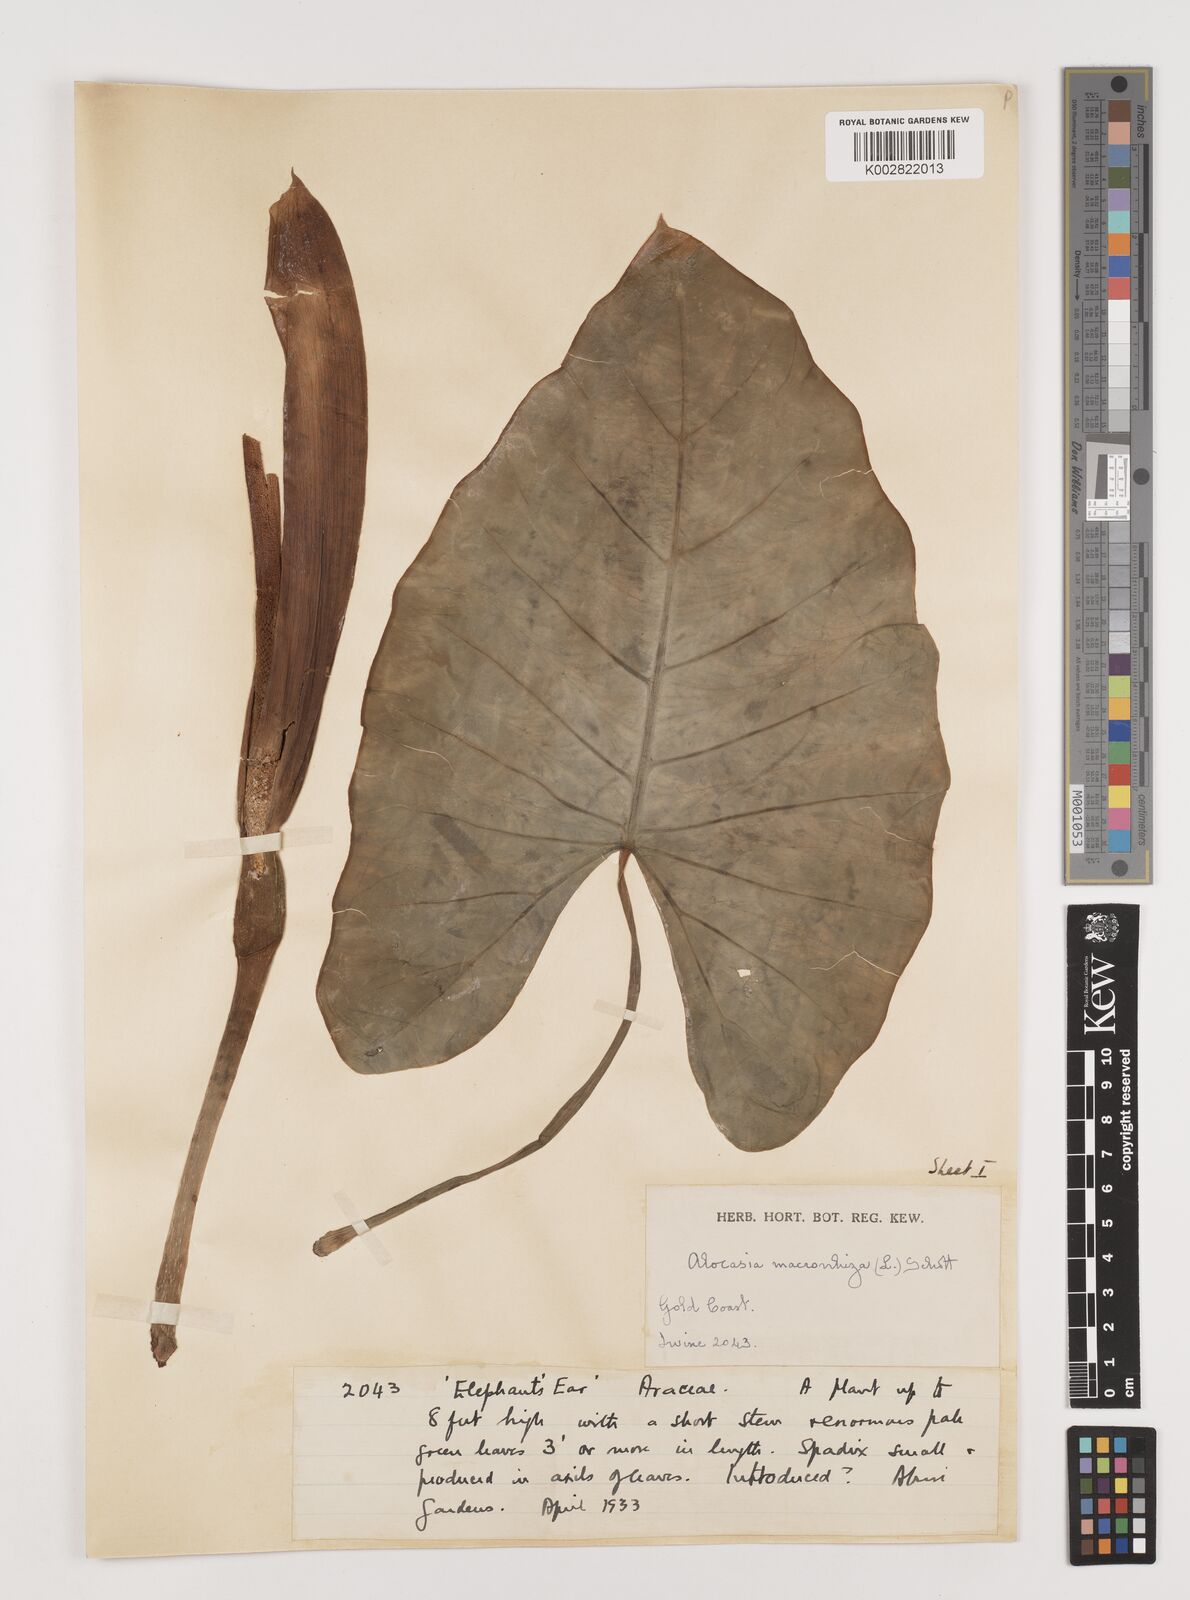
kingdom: Plantae
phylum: Tracheophyta
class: Liliopsida
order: Alismatales
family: Araceae
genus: Alocasia
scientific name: Alocasia macrorrhizos
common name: Giant taro
